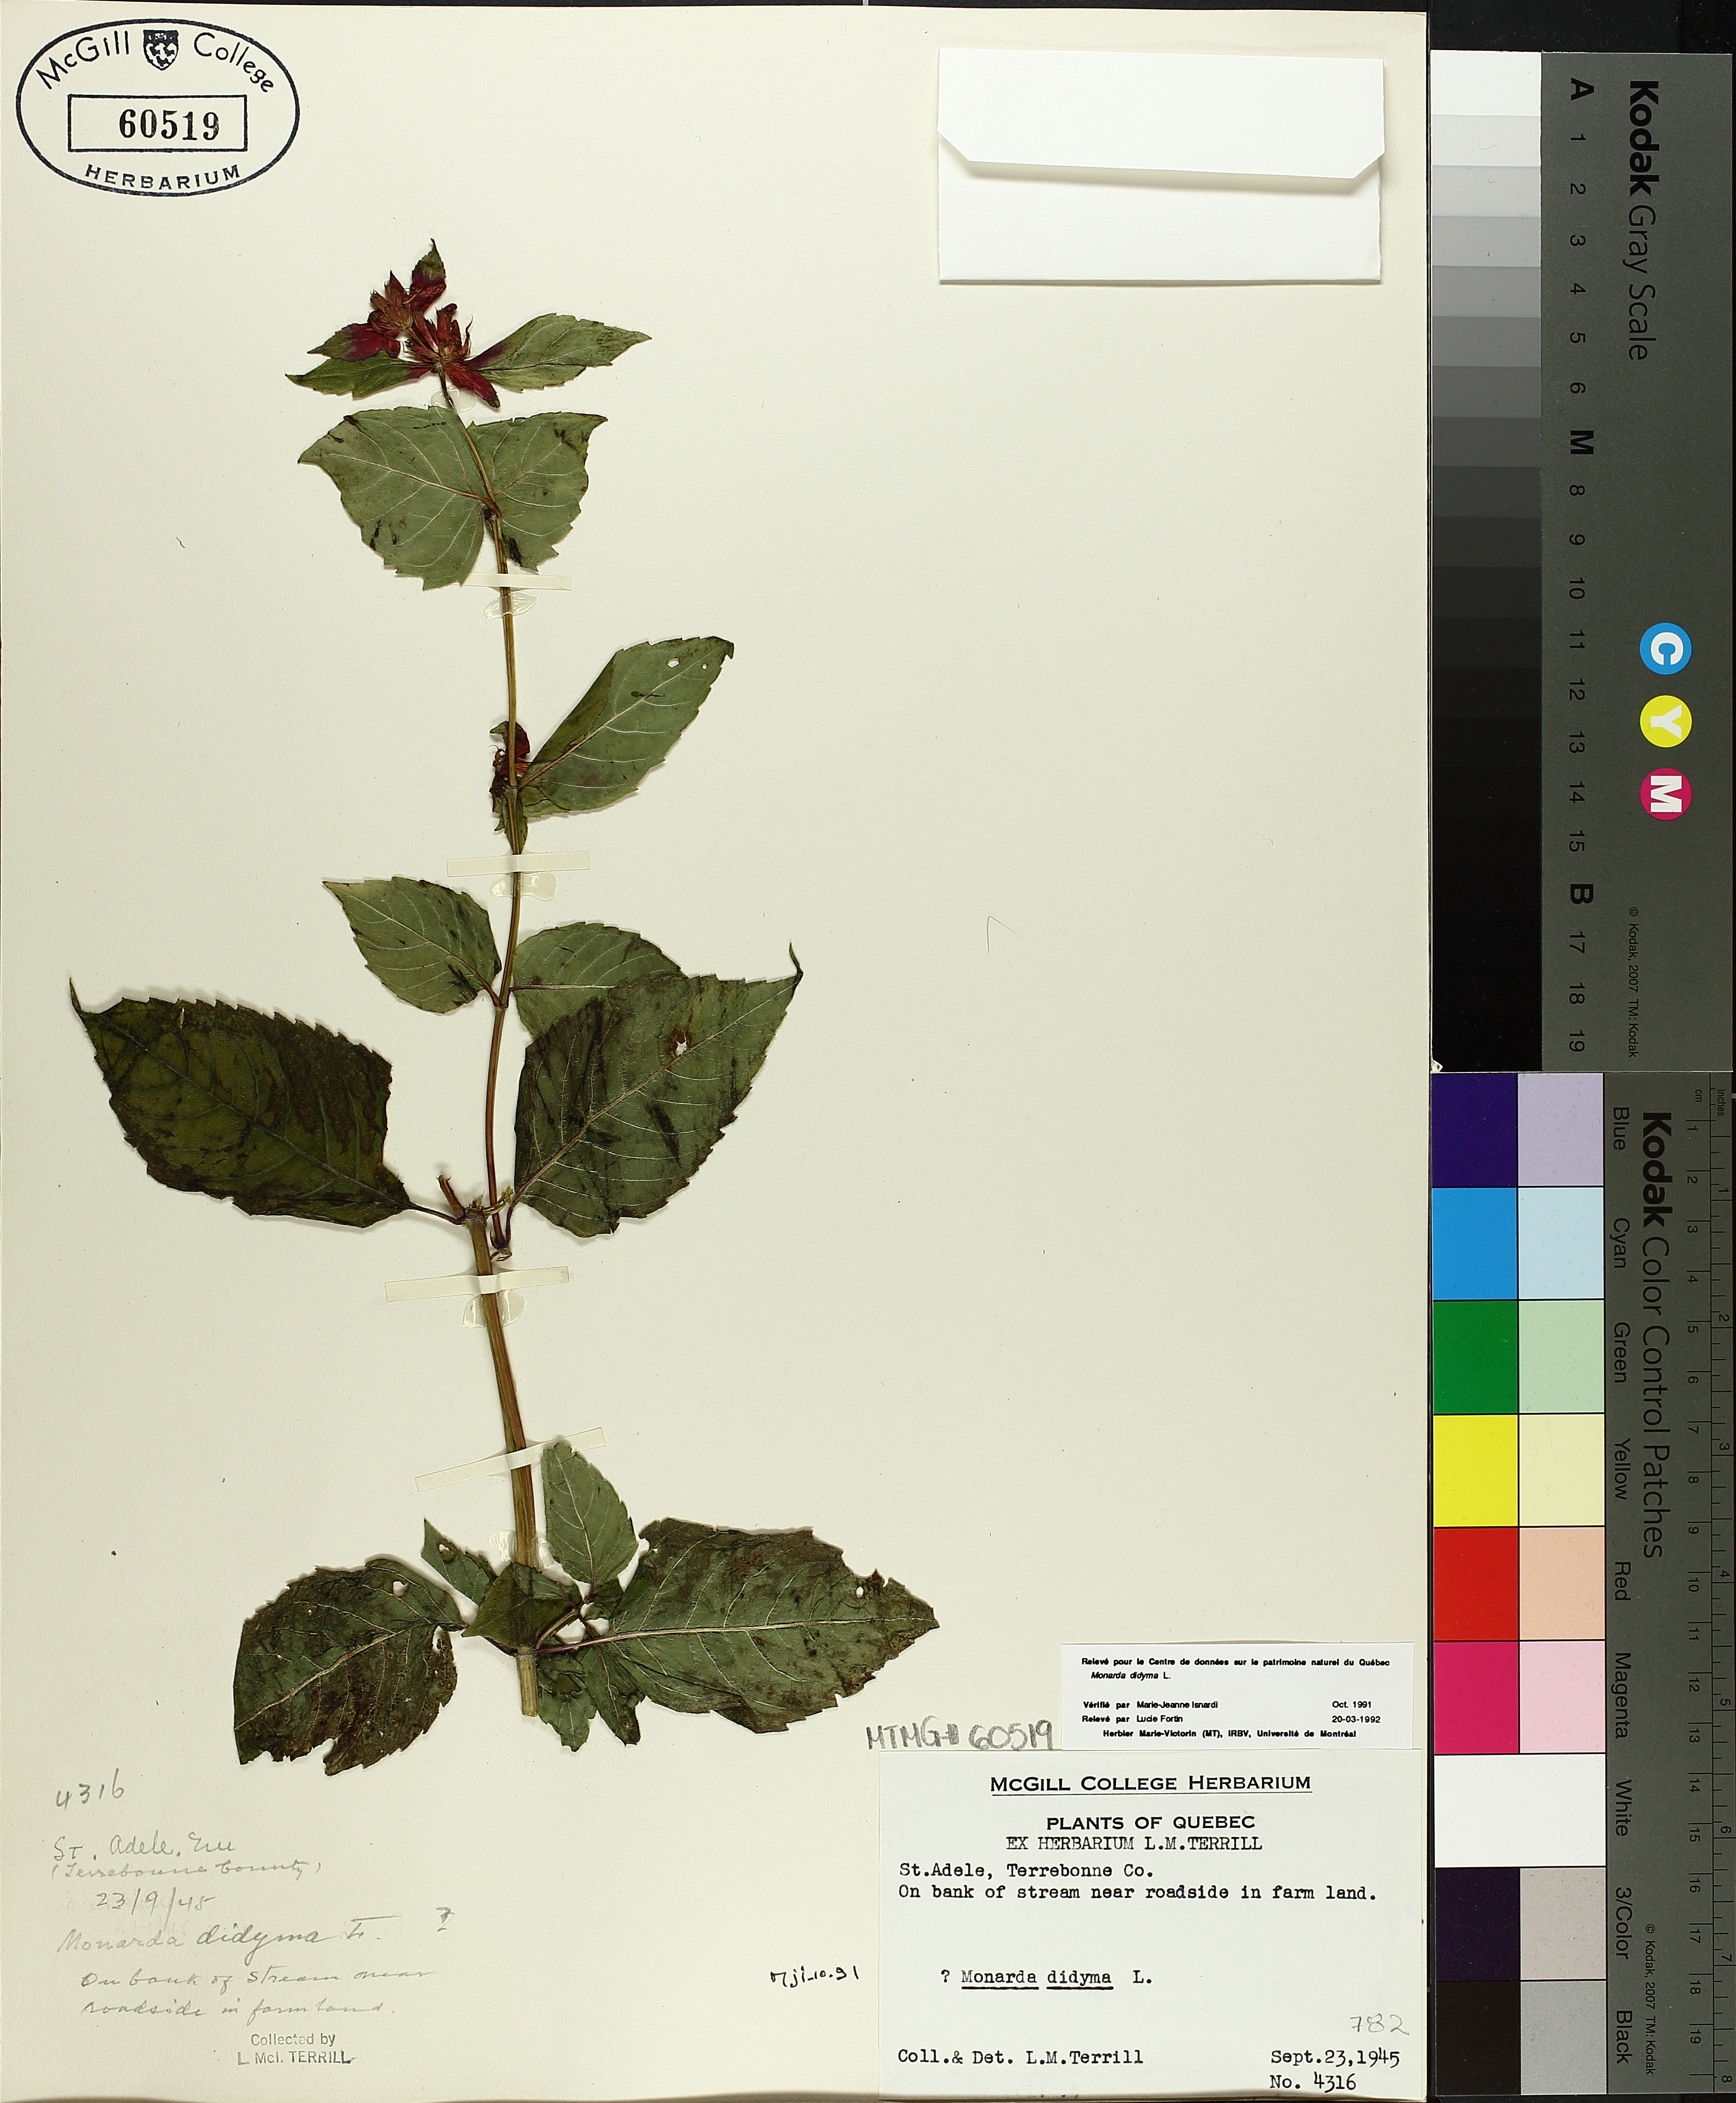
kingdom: Plantae
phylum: Tracheophyta
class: Magnoliopsida
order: Lamiales
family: Lamiaceae
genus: Monarda
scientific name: Monarda didyma
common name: Beebalm
